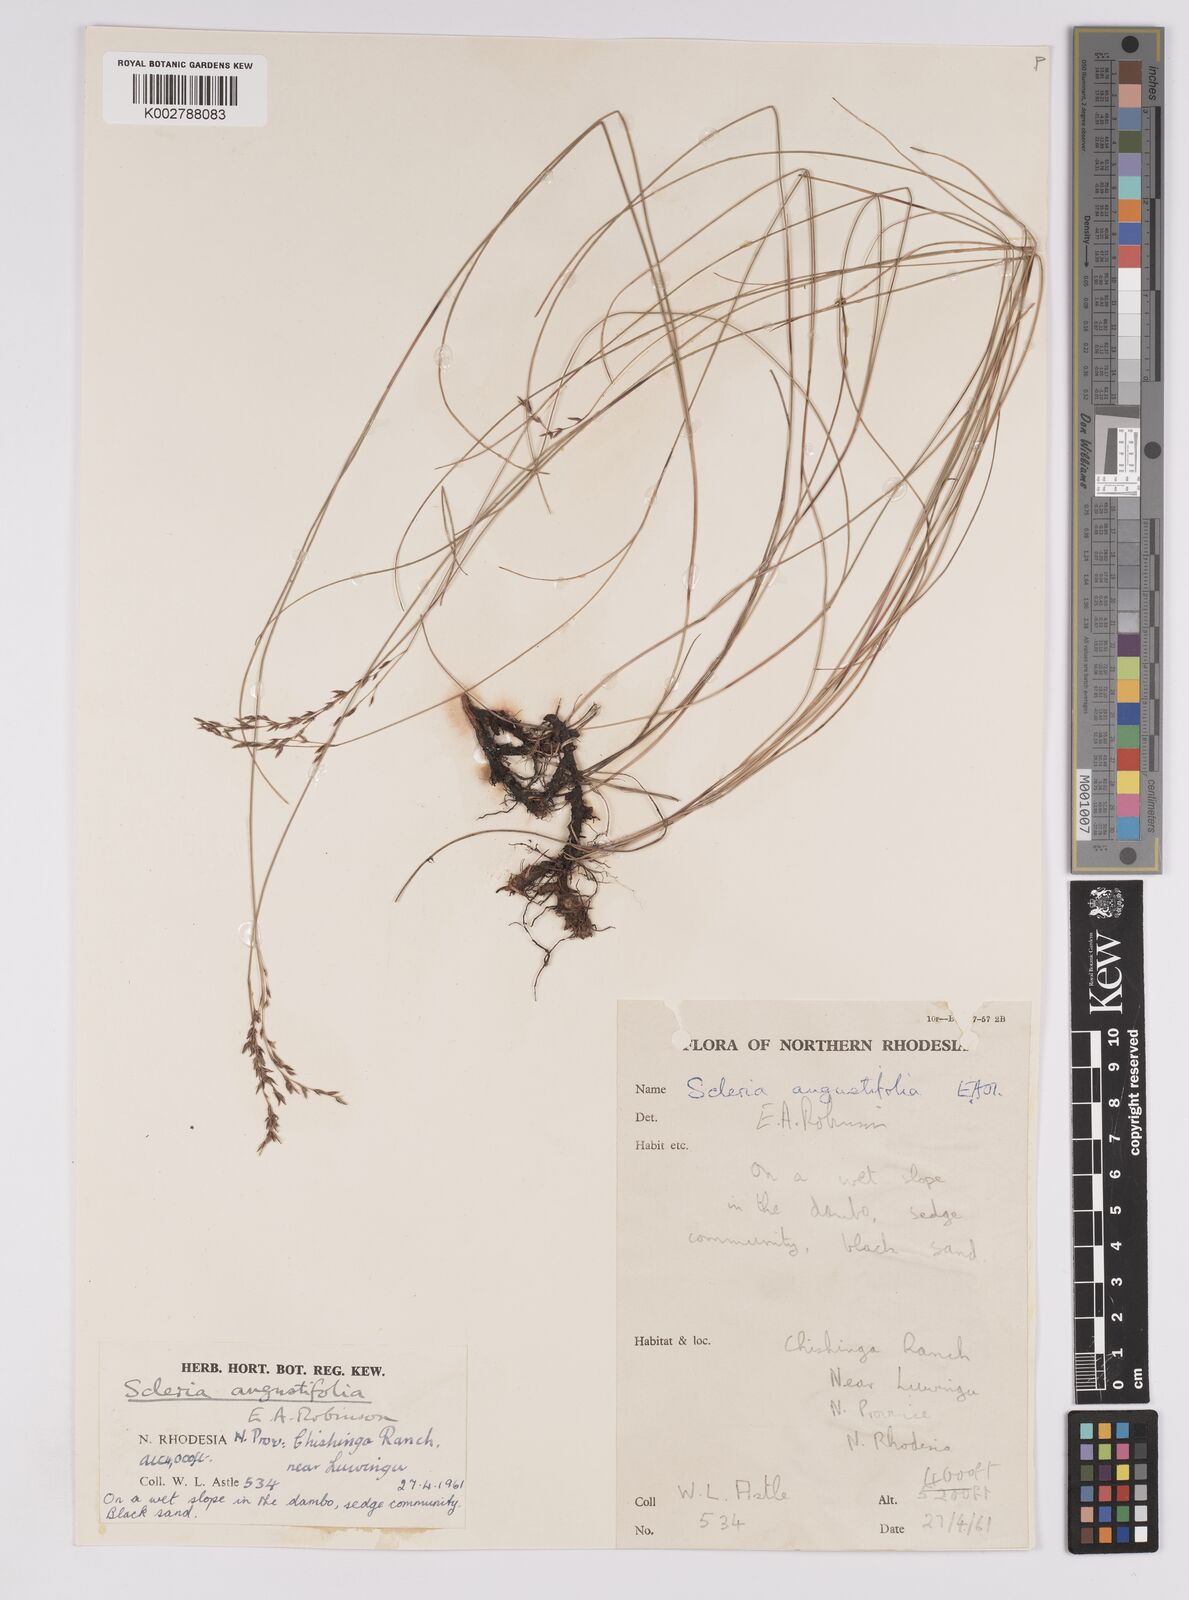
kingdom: Plantae
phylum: Tracheophyta
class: Liliopsida
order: Poales
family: Cyperaceae
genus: Scleria
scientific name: Scleria angustifolia
